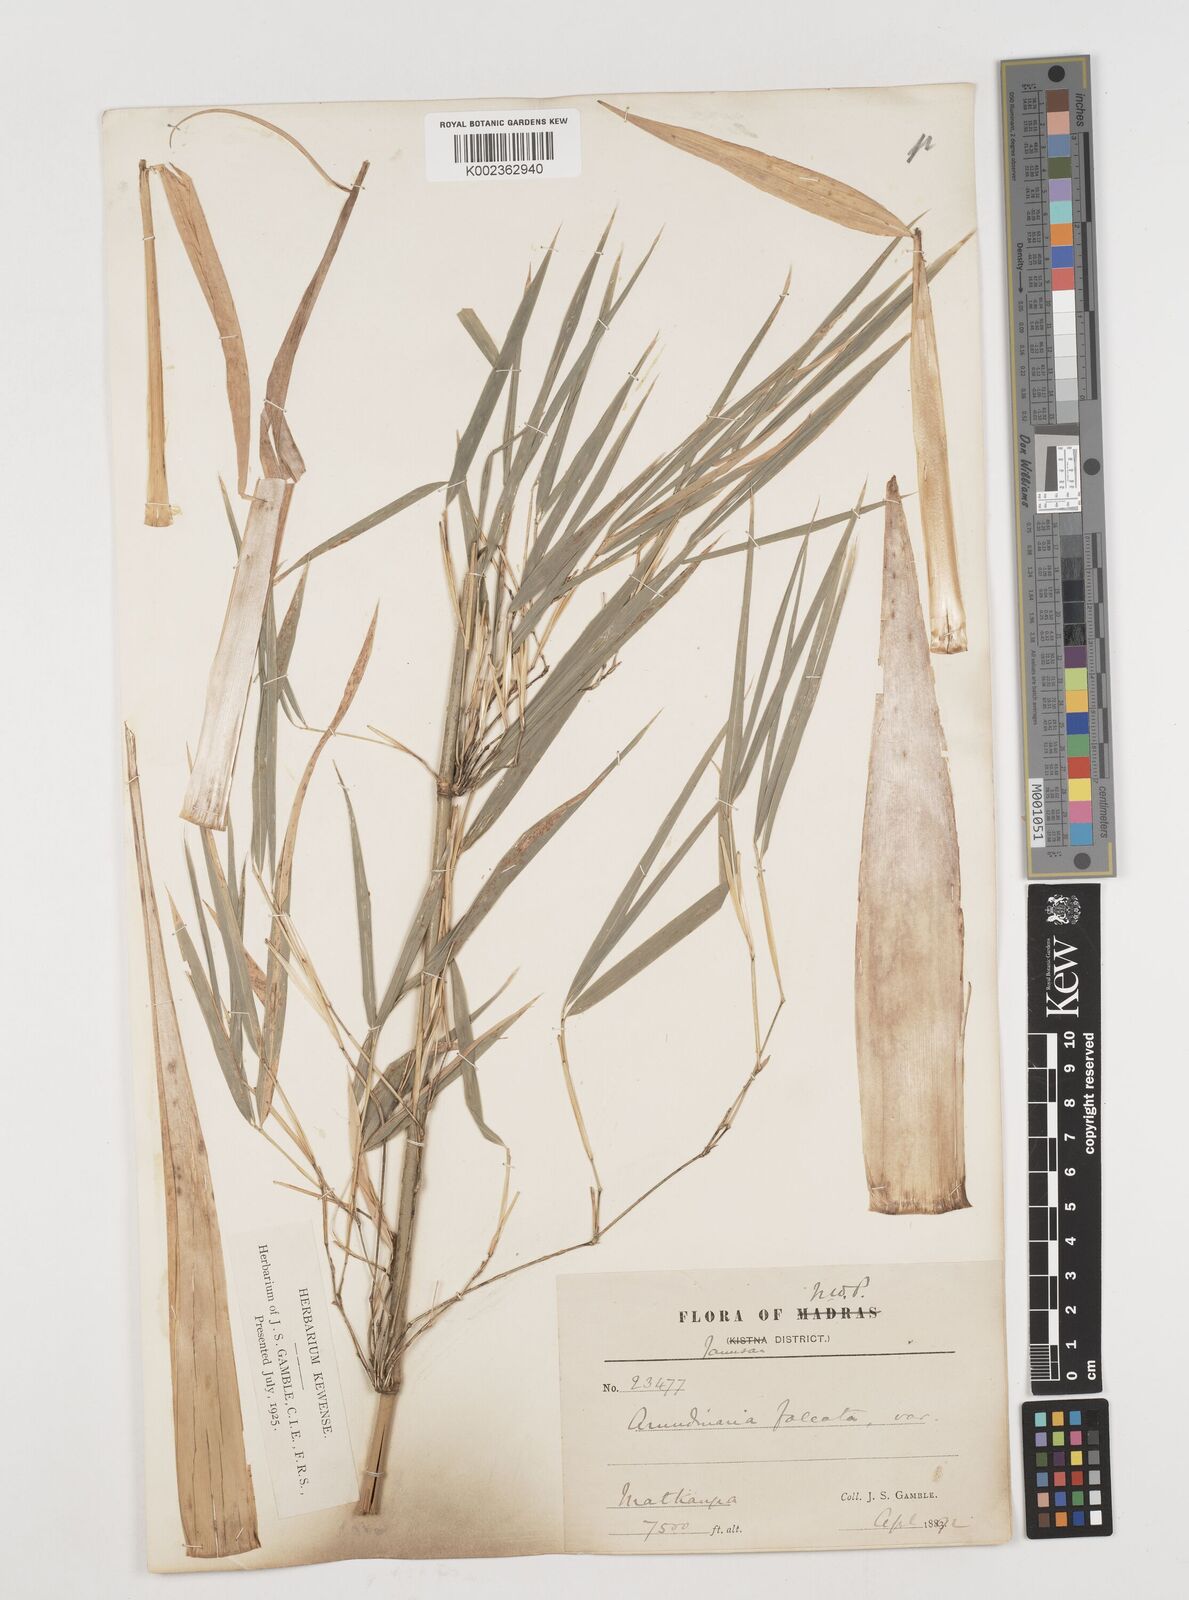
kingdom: Plantae
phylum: Tracheophyta
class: Liliopsida
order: Poales
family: Poaceae
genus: Drepanostachyum
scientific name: Drepanostachyum falcatum
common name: Himalayan bamboo
